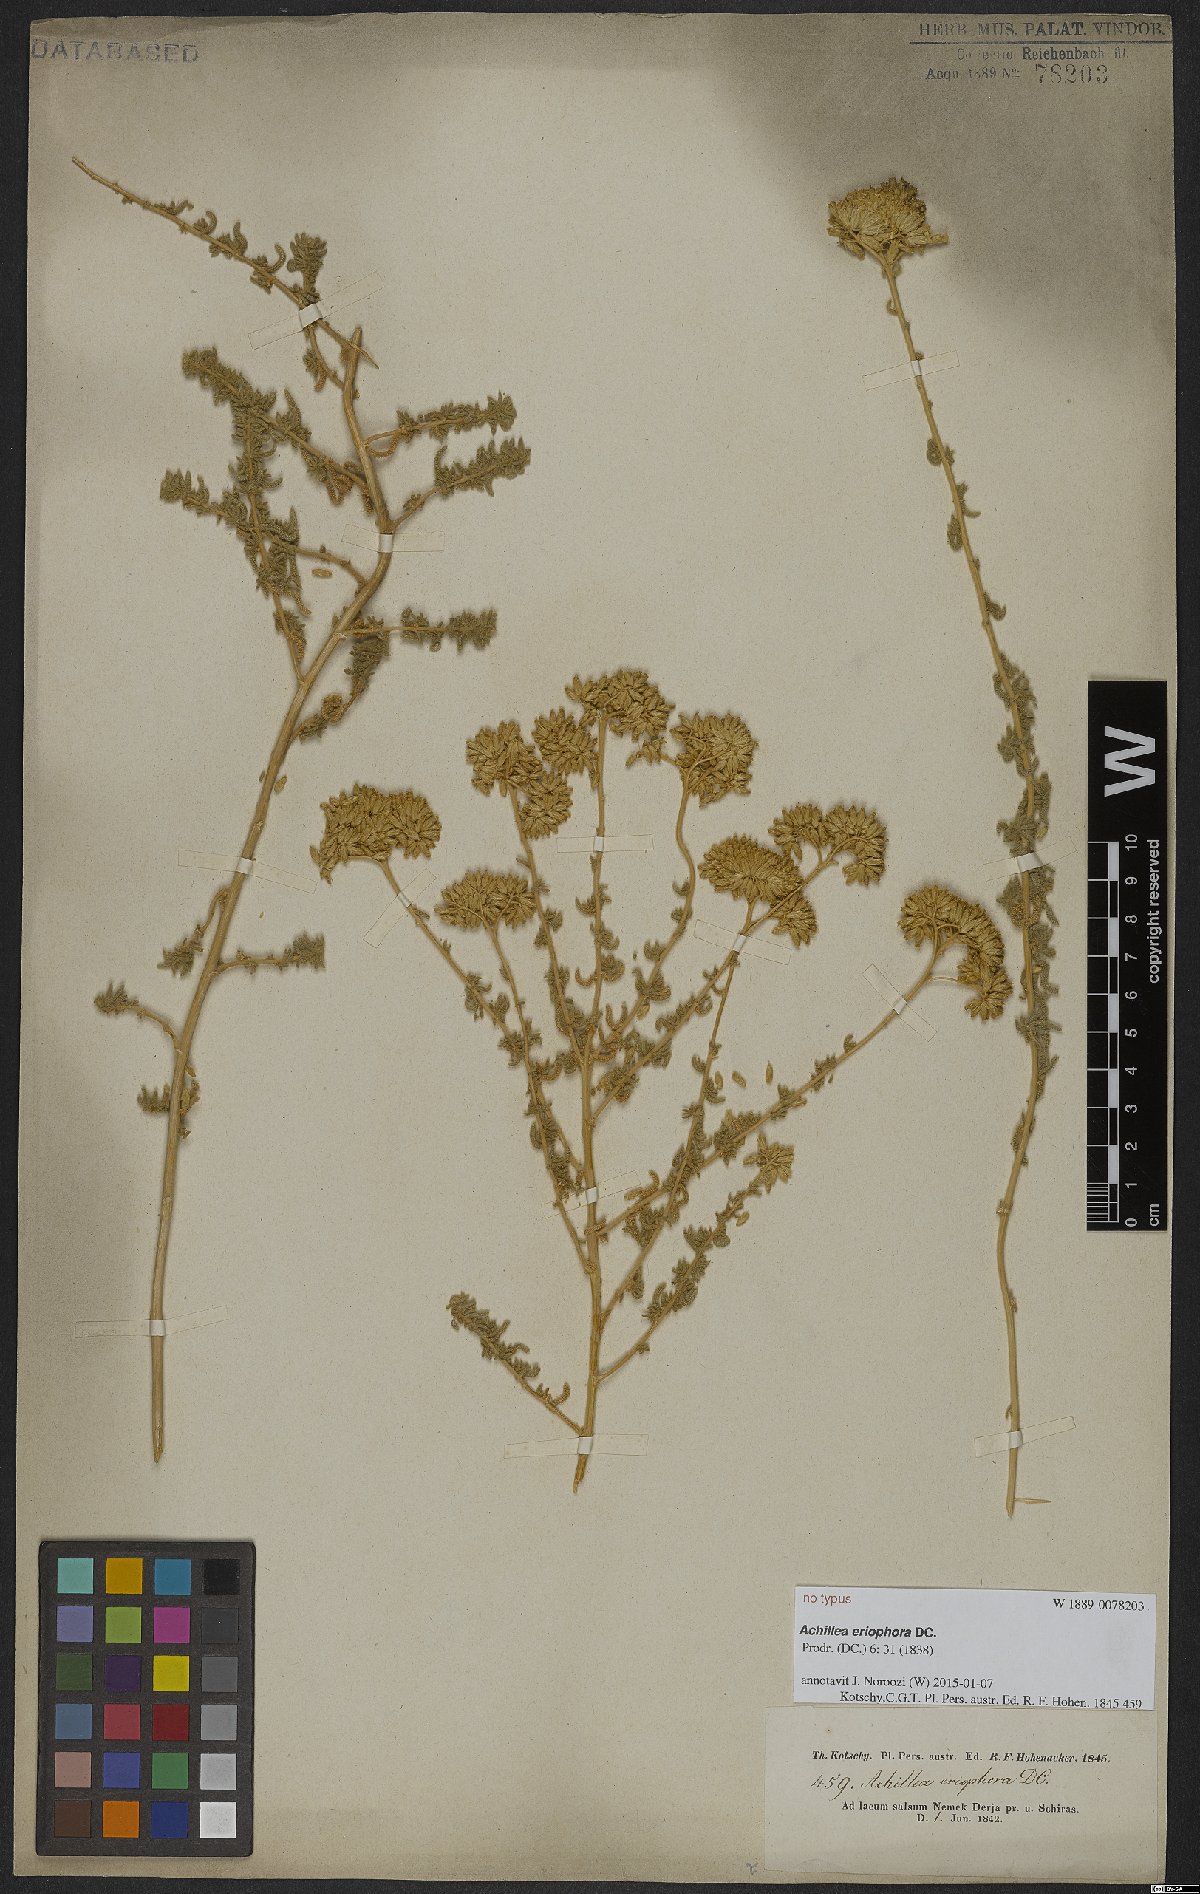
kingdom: Plantae
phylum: Tracheophyta
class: Magnoliopsida
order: Asterales
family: Asteraceae
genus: Achillea
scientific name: Achillea eriophora
